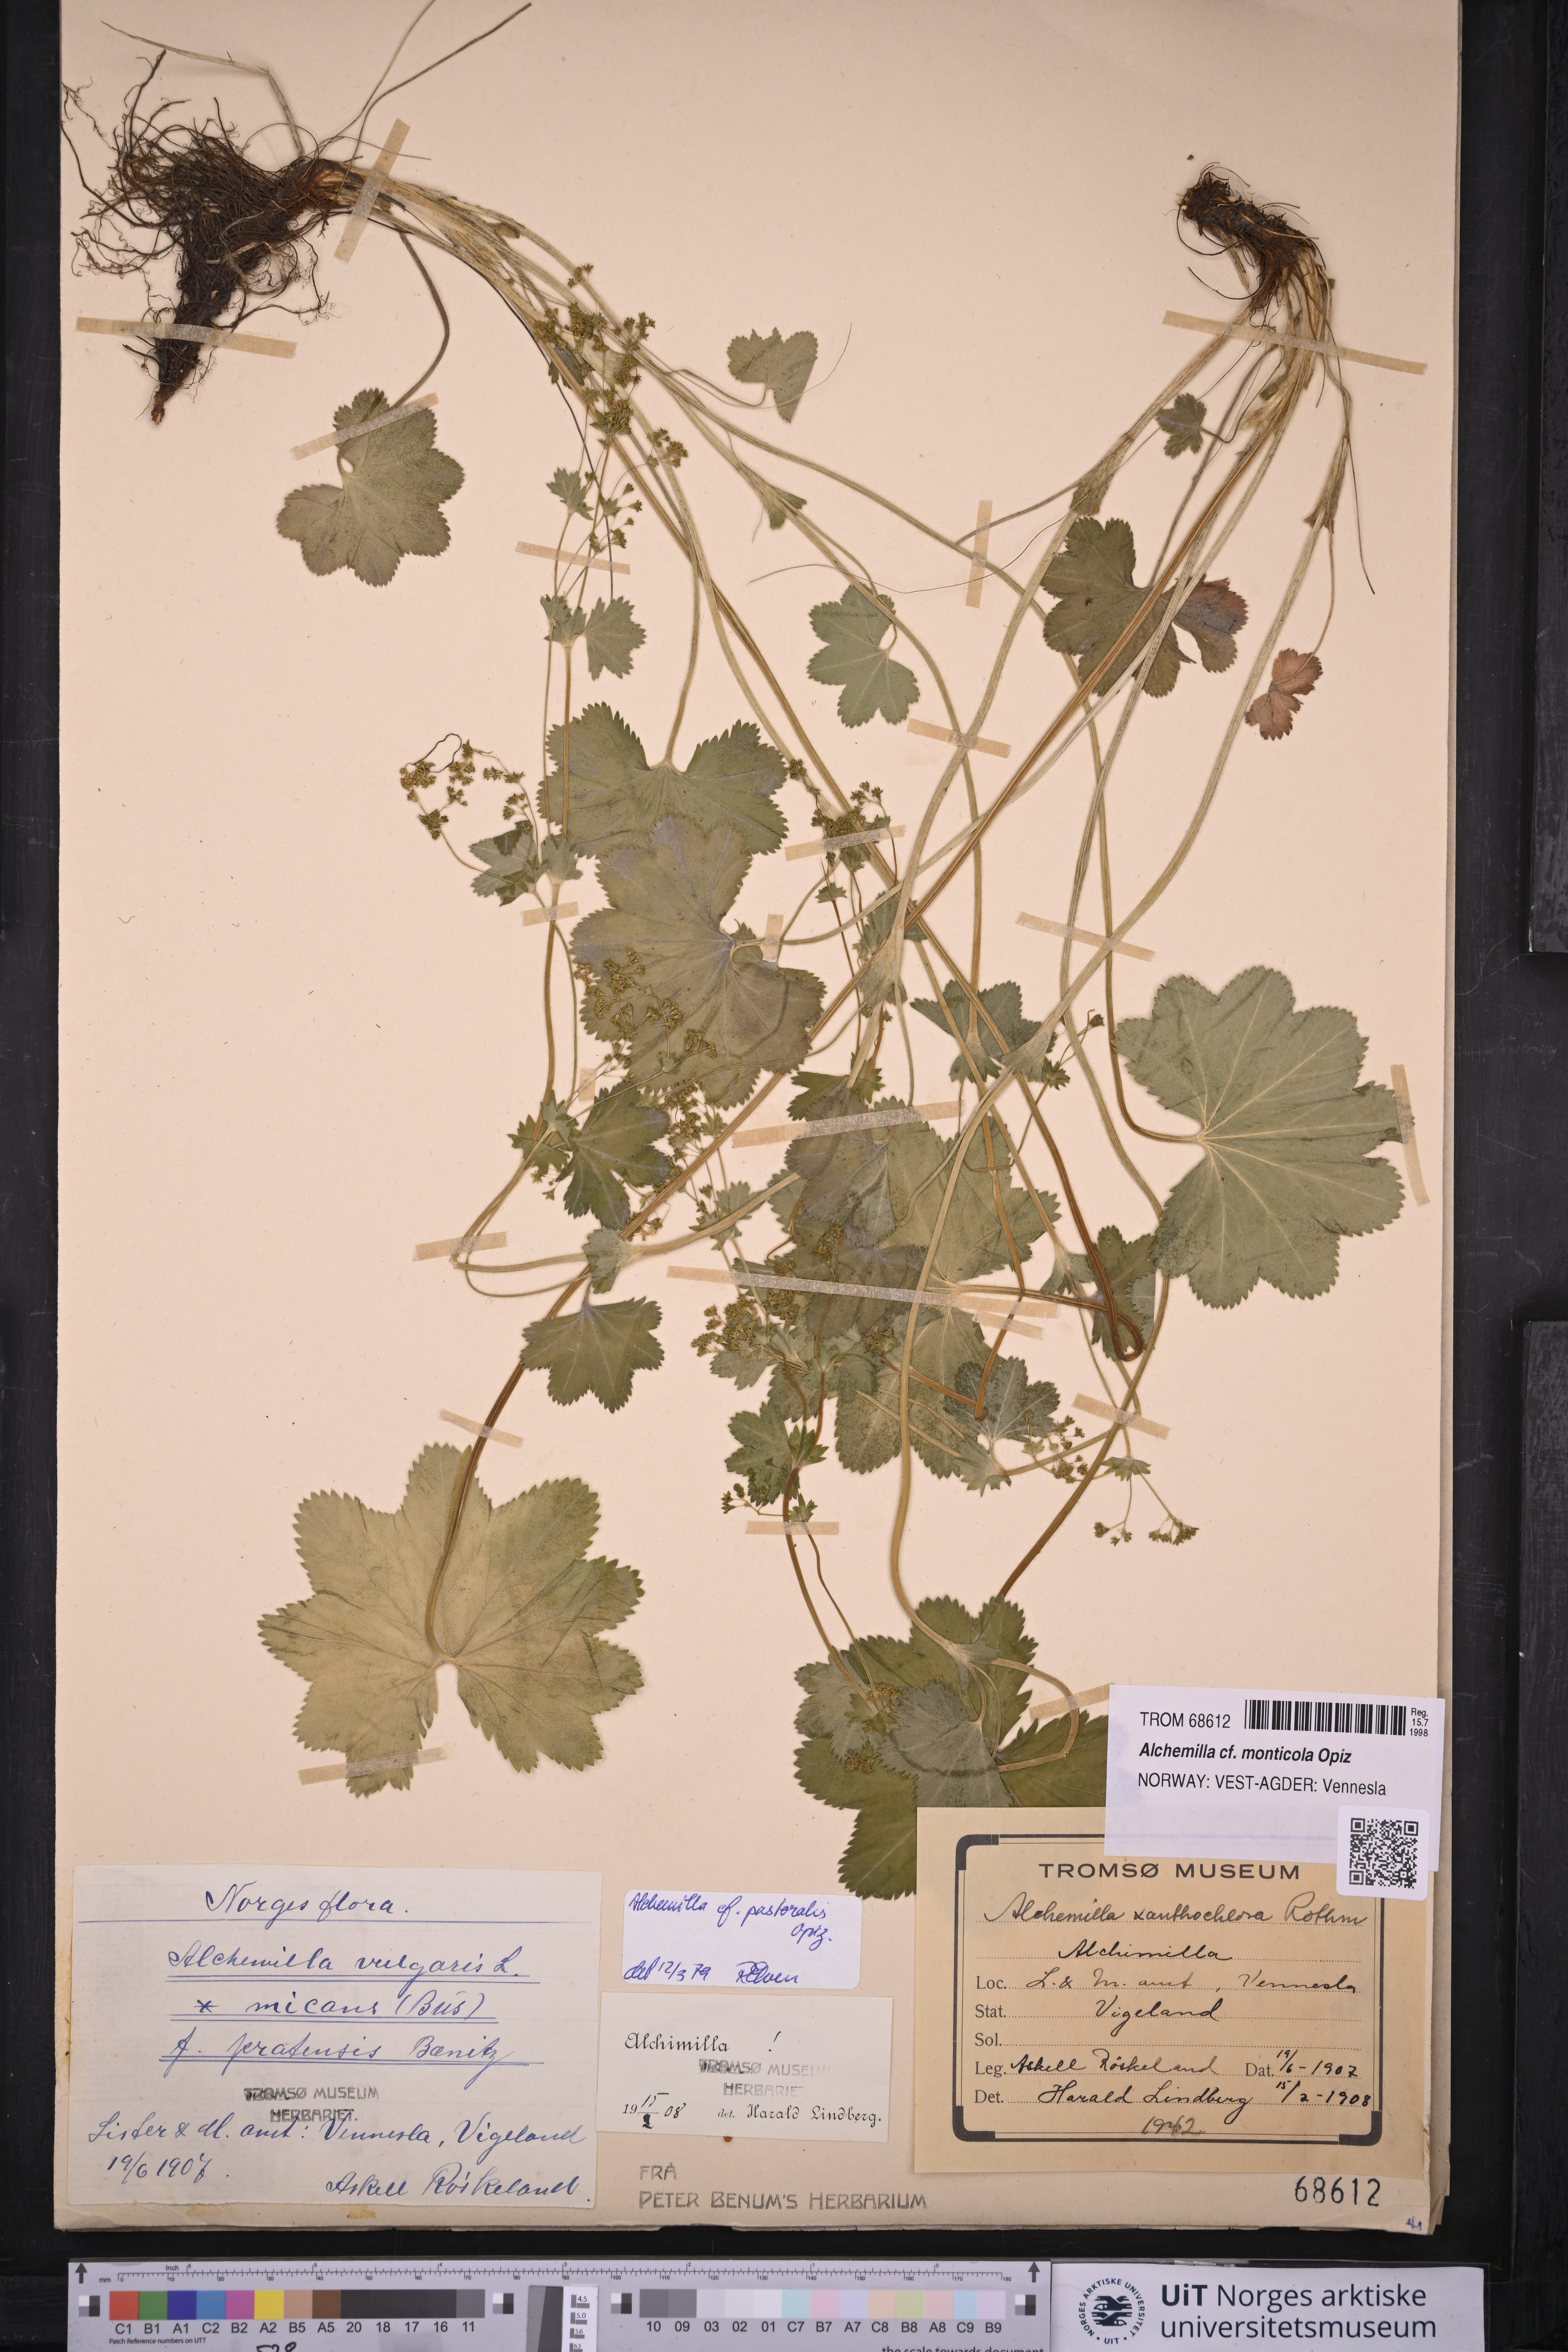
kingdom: Plantae
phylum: Tracheophyta
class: Magnoliopsida
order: Rosales
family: Rosaceae
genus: Alchemilla
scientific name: Alchemilla monticola
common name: Hairy lady's mantle
